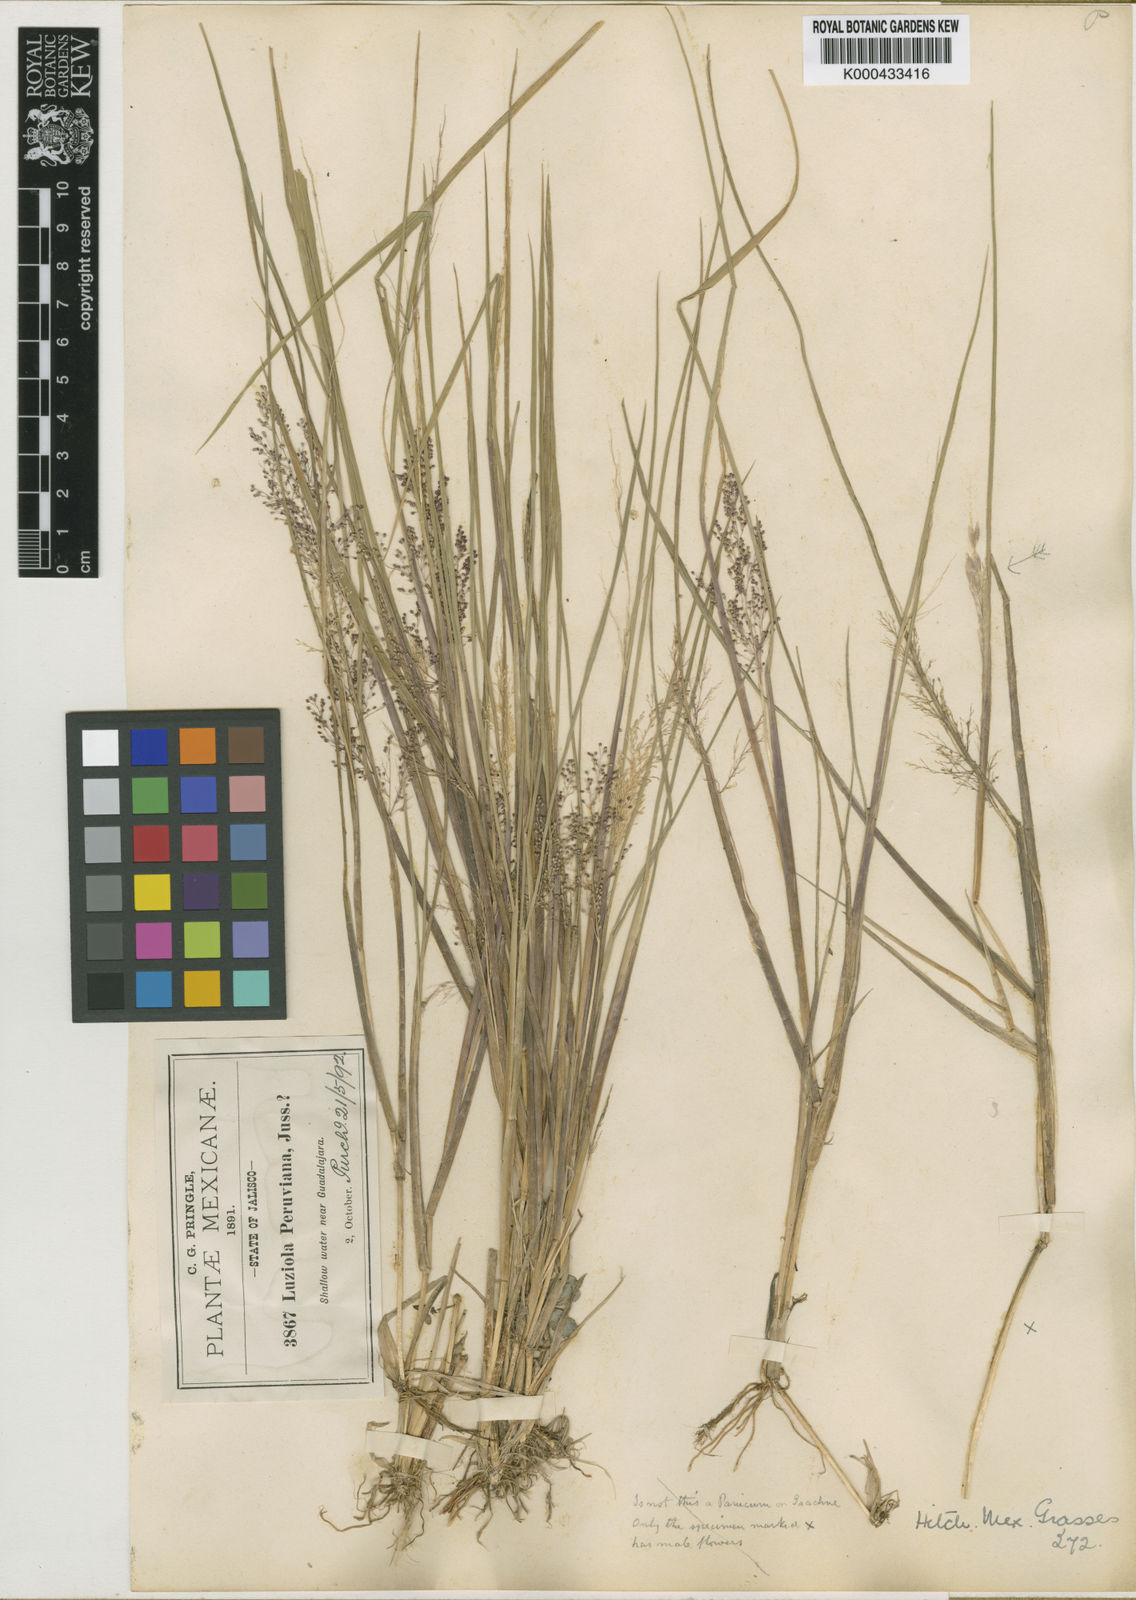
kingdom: Plantae
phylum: Tracheophyta
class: Liliopsida
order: Poales
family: Poaceae
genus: Luziola
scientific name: Luziola gracillima
